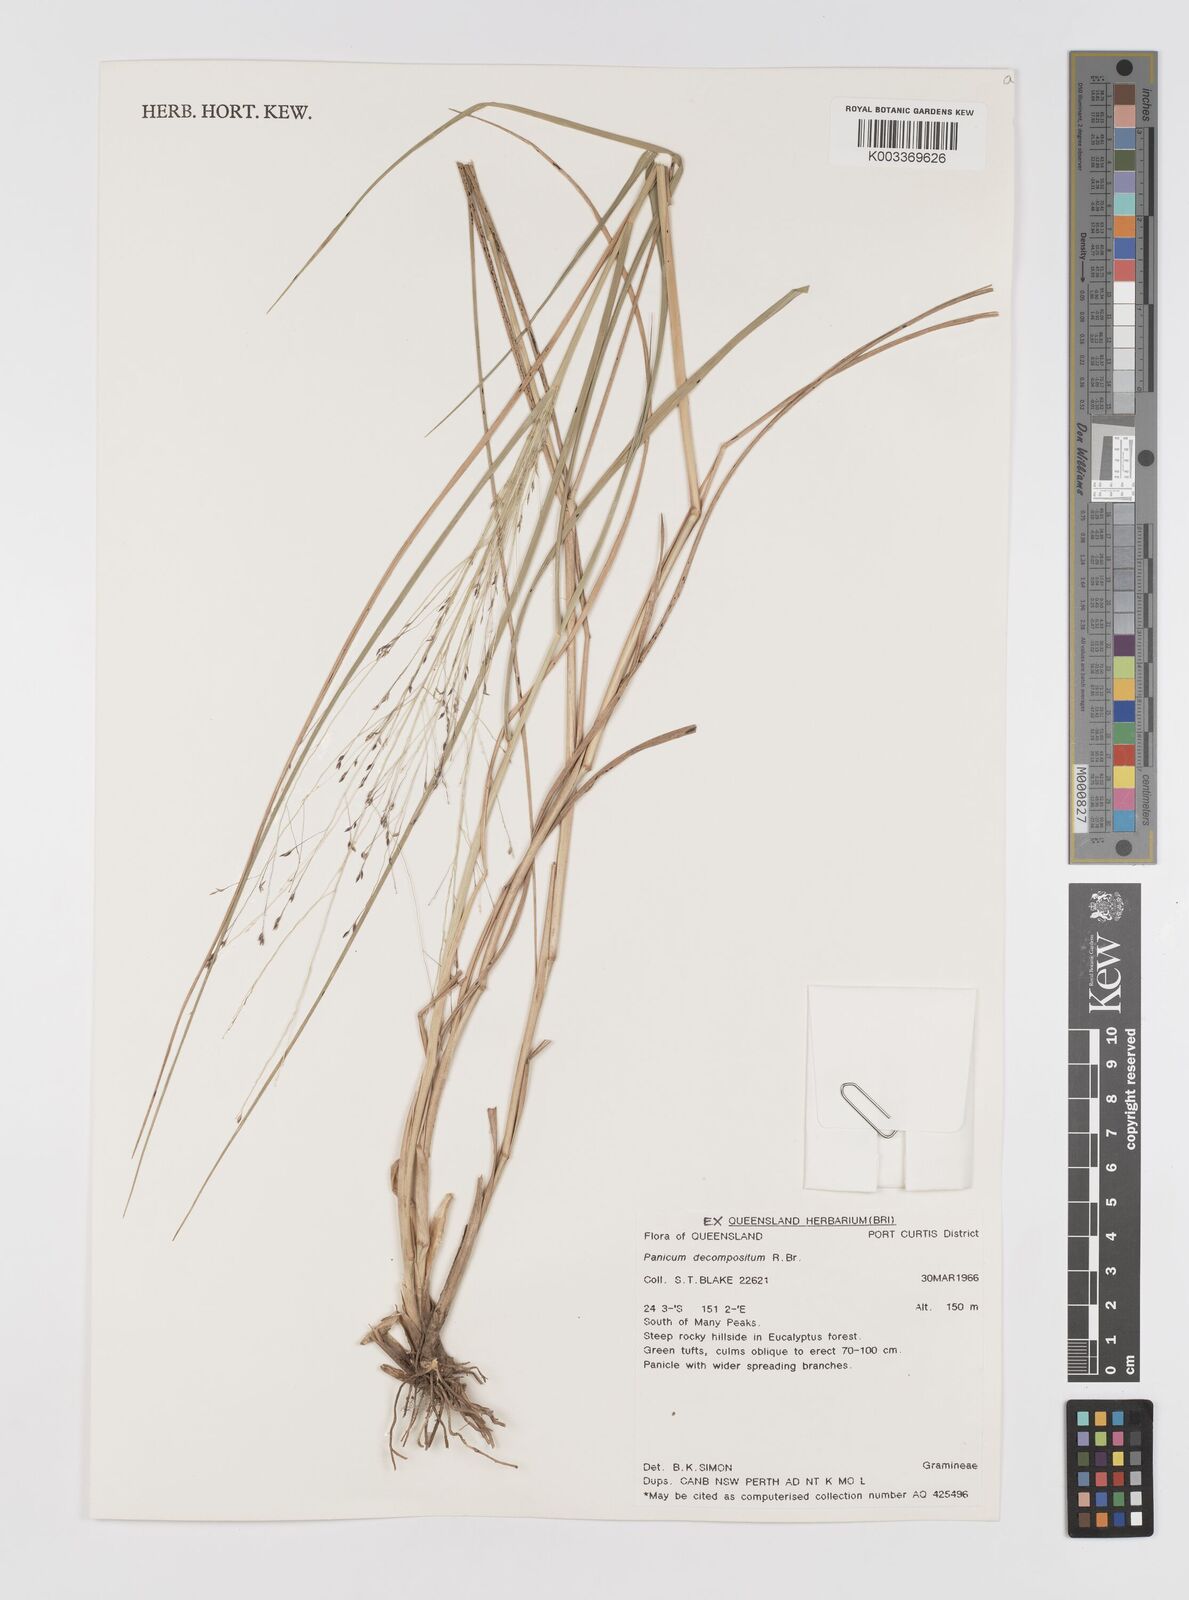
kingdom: Plantae
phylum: Tracheophyta
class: Liliopsida
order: Poales
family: Poaceae
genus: Panicum
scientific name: Panicum decompositum
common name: Australian millet
